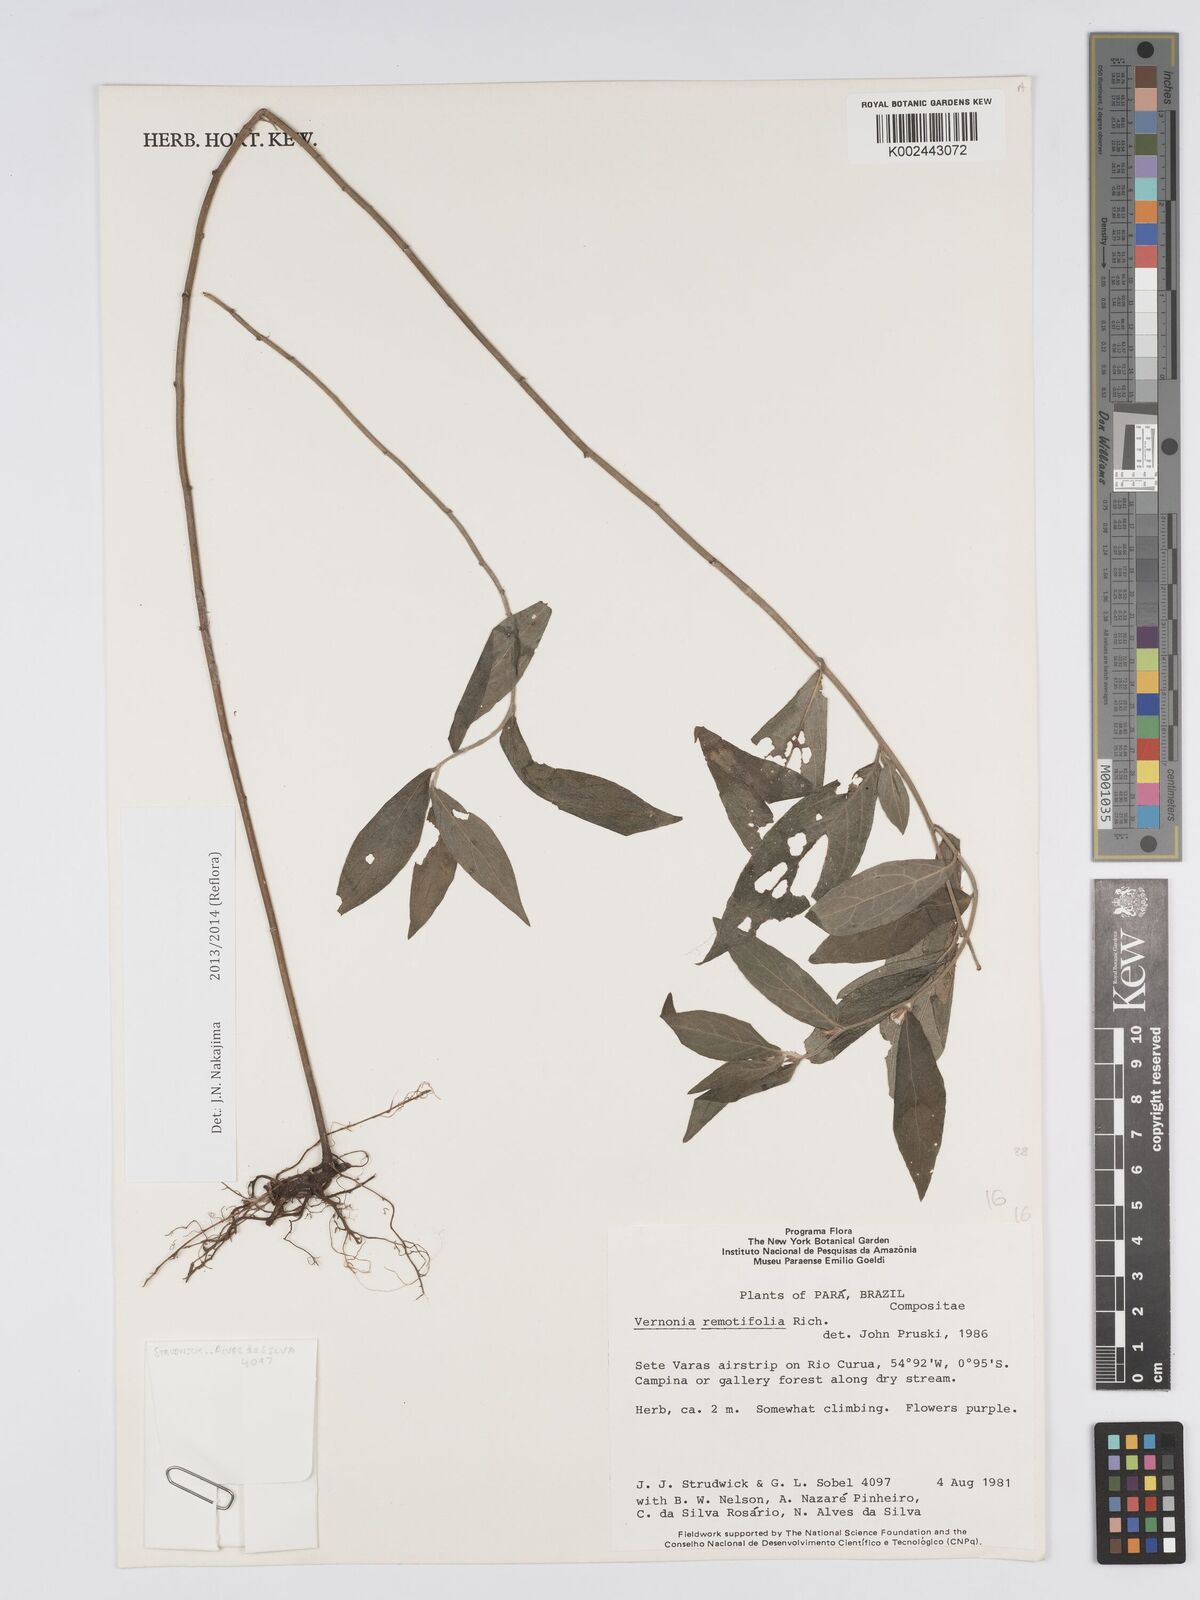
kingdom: Plantae
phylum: Tracheophyta
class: Magnoliopsida
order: Asterales
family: Asteraceae
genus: Lepidaploa
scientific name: Lepidaploa remotiflora
